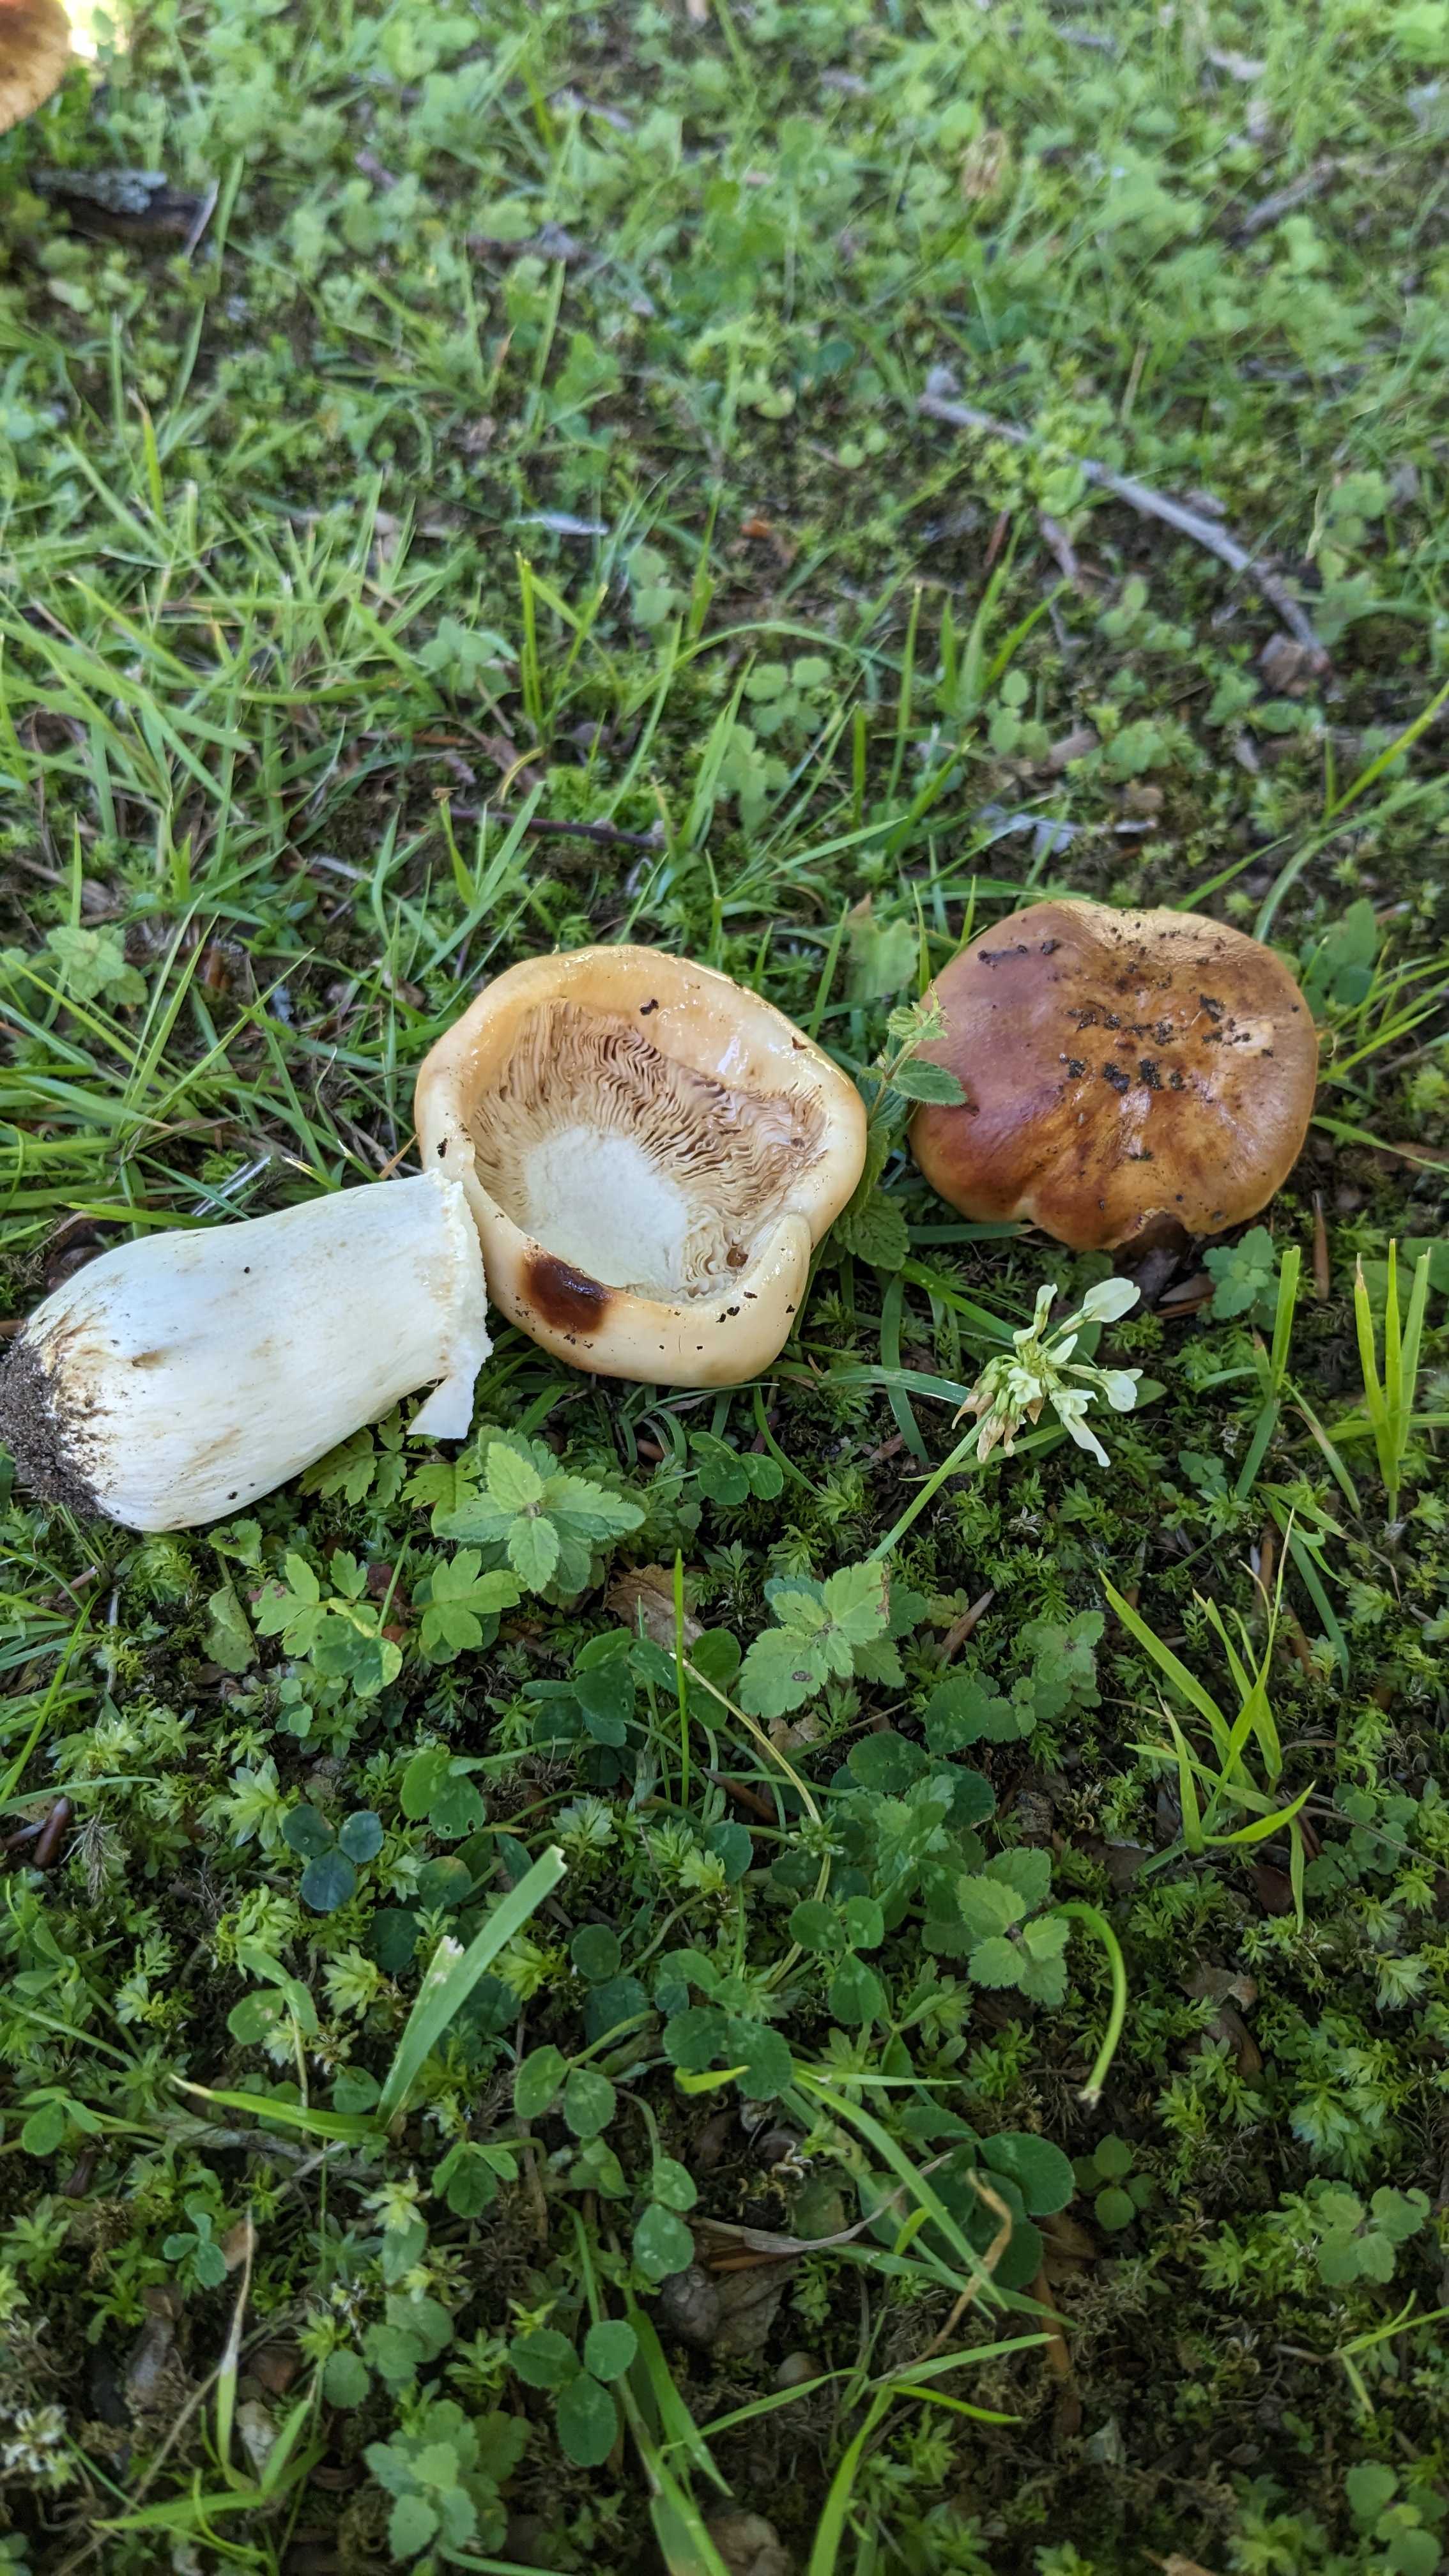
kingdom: Fungi
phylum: Basidiomycota
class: Agaricomycetes
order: Russulales
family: Russulaceae
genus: Russula
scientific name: Russula
